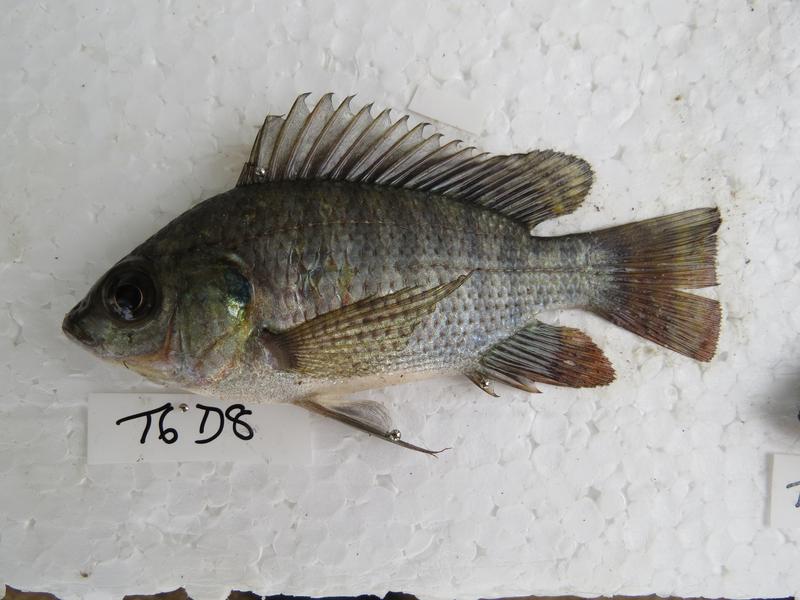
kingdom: Animalia
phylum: Chordata
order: Perciformes
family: Cichlidae
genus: Oreochromis
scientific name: Oreochromis niloticus
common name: Nile tilapia
